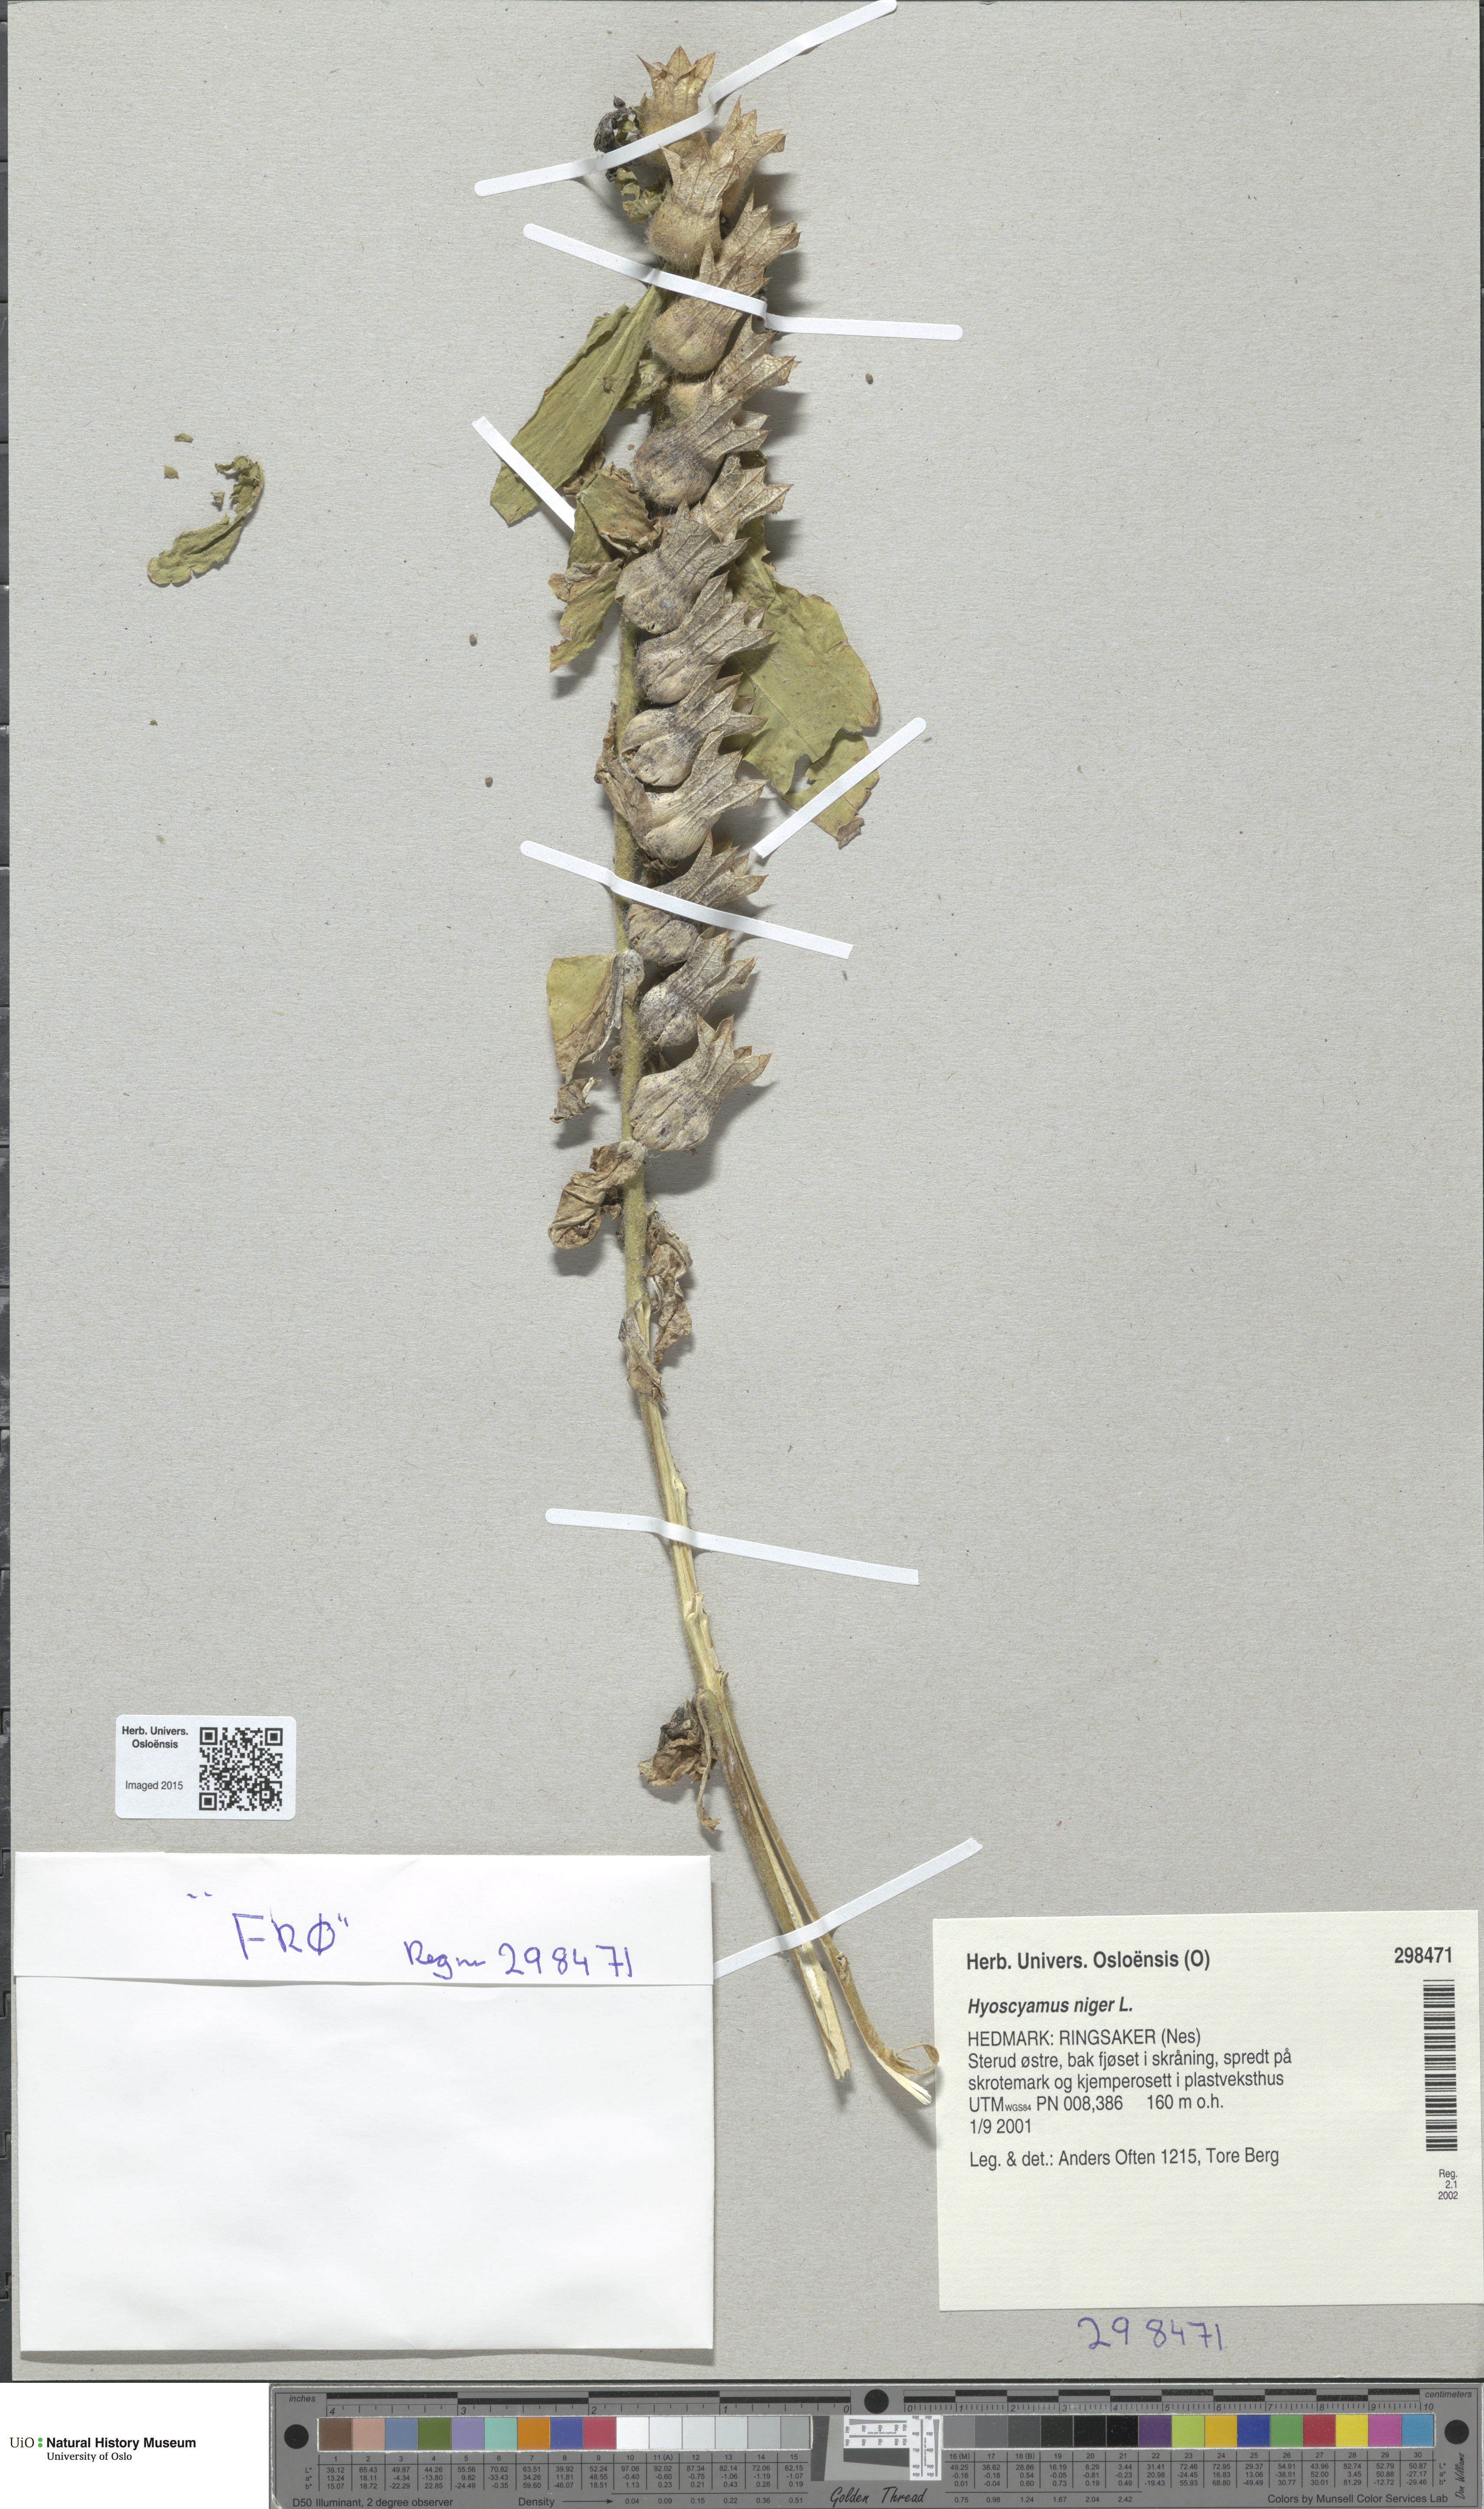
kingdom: Plantae
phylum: Tracheophyta
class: Magnoliopsida
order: Solanales
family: Solanaceae
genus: Hyoscyamus
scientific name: Hyoscyamus niger
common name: Henbane
